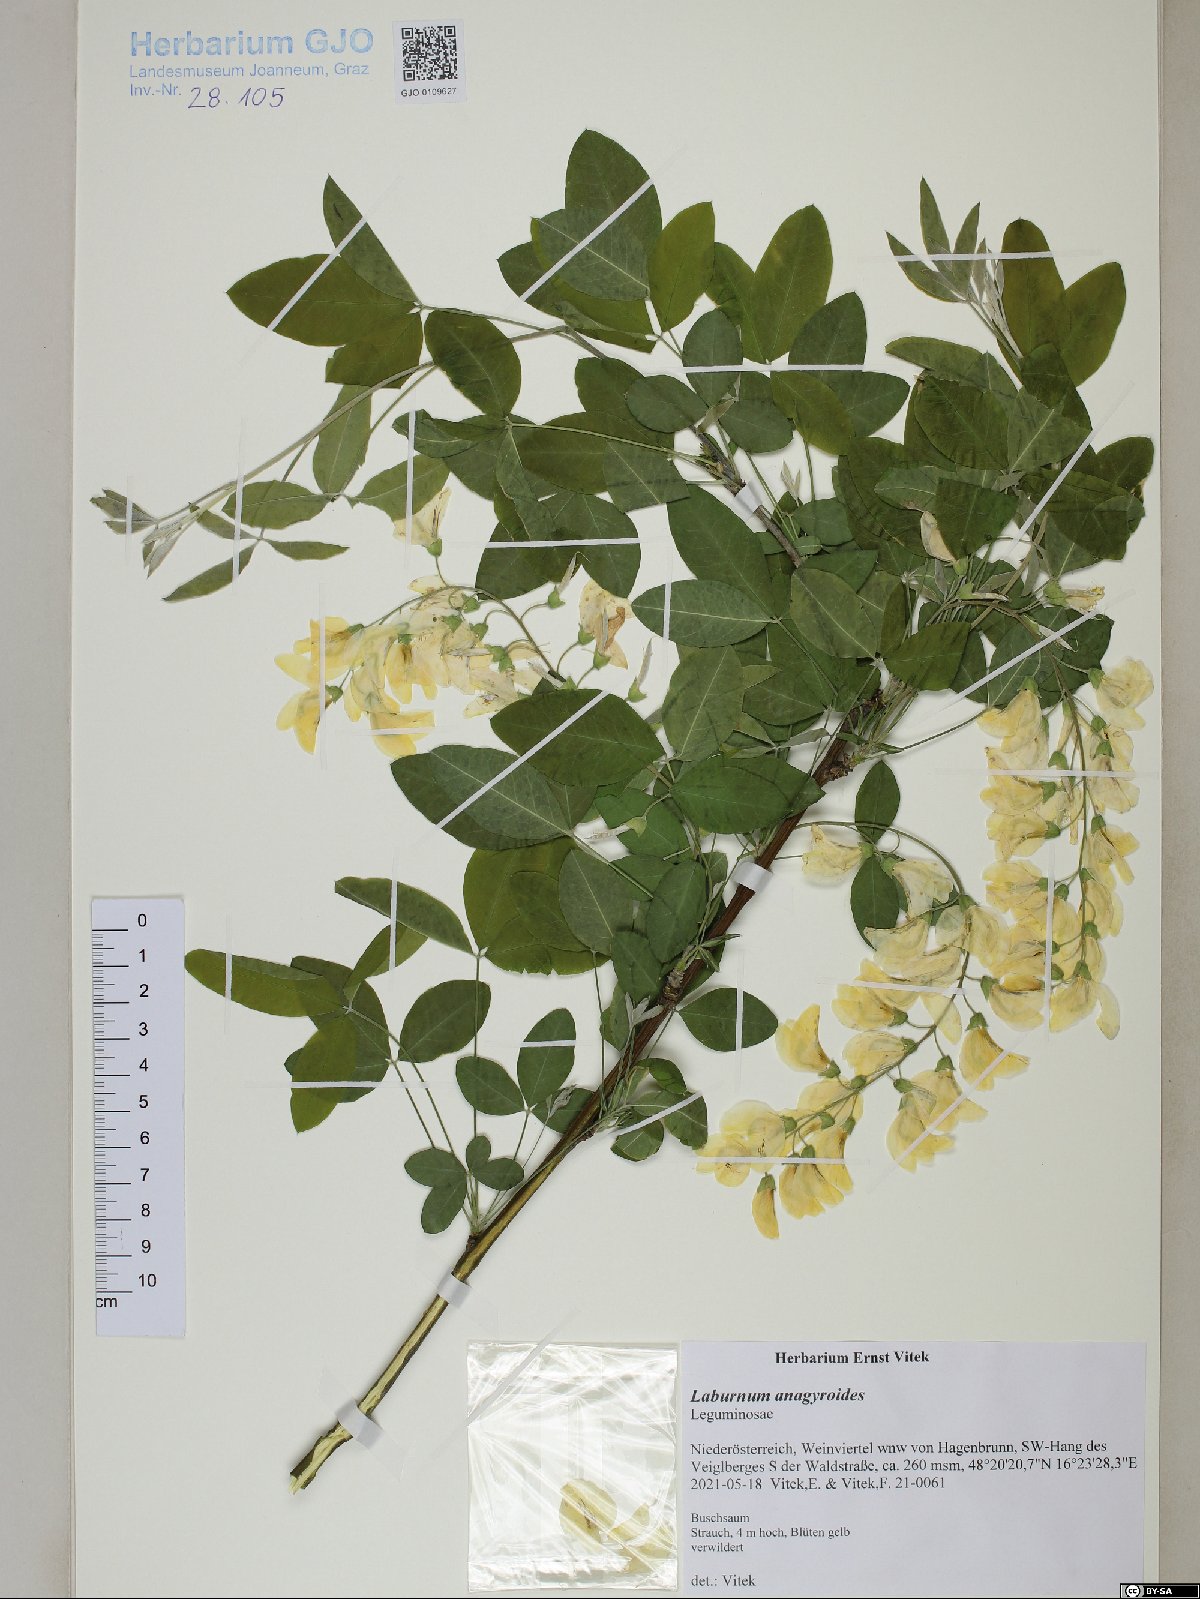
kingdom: Plantae
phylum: Tracheophyta
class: Magnoliopsida
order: Fabales
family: Fabaceae
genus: Laburnum
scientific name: Laburnum anagyroides
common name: Laburnum
